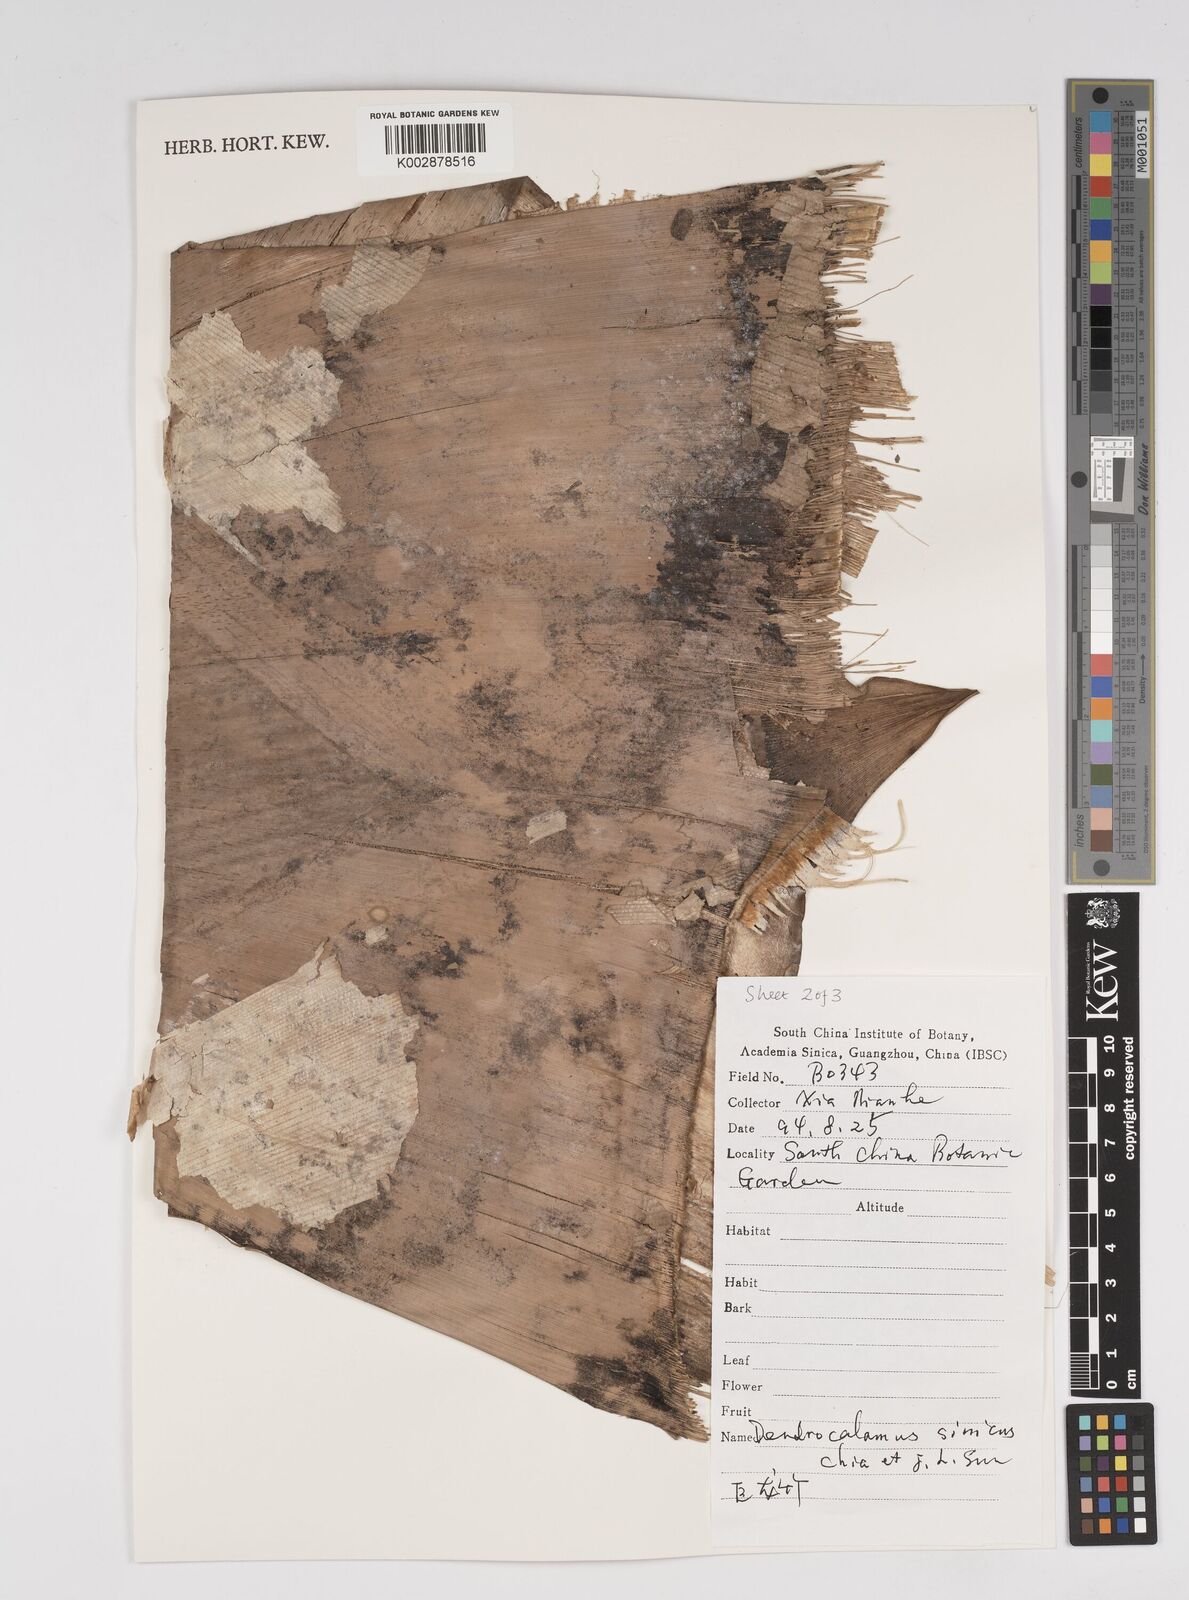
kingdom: Plantae
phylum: Tracheophyta
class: Liliopsida
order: Poales
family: Poaceae
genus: Dendrocalamus
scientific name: Dendrocalamus sinicus
